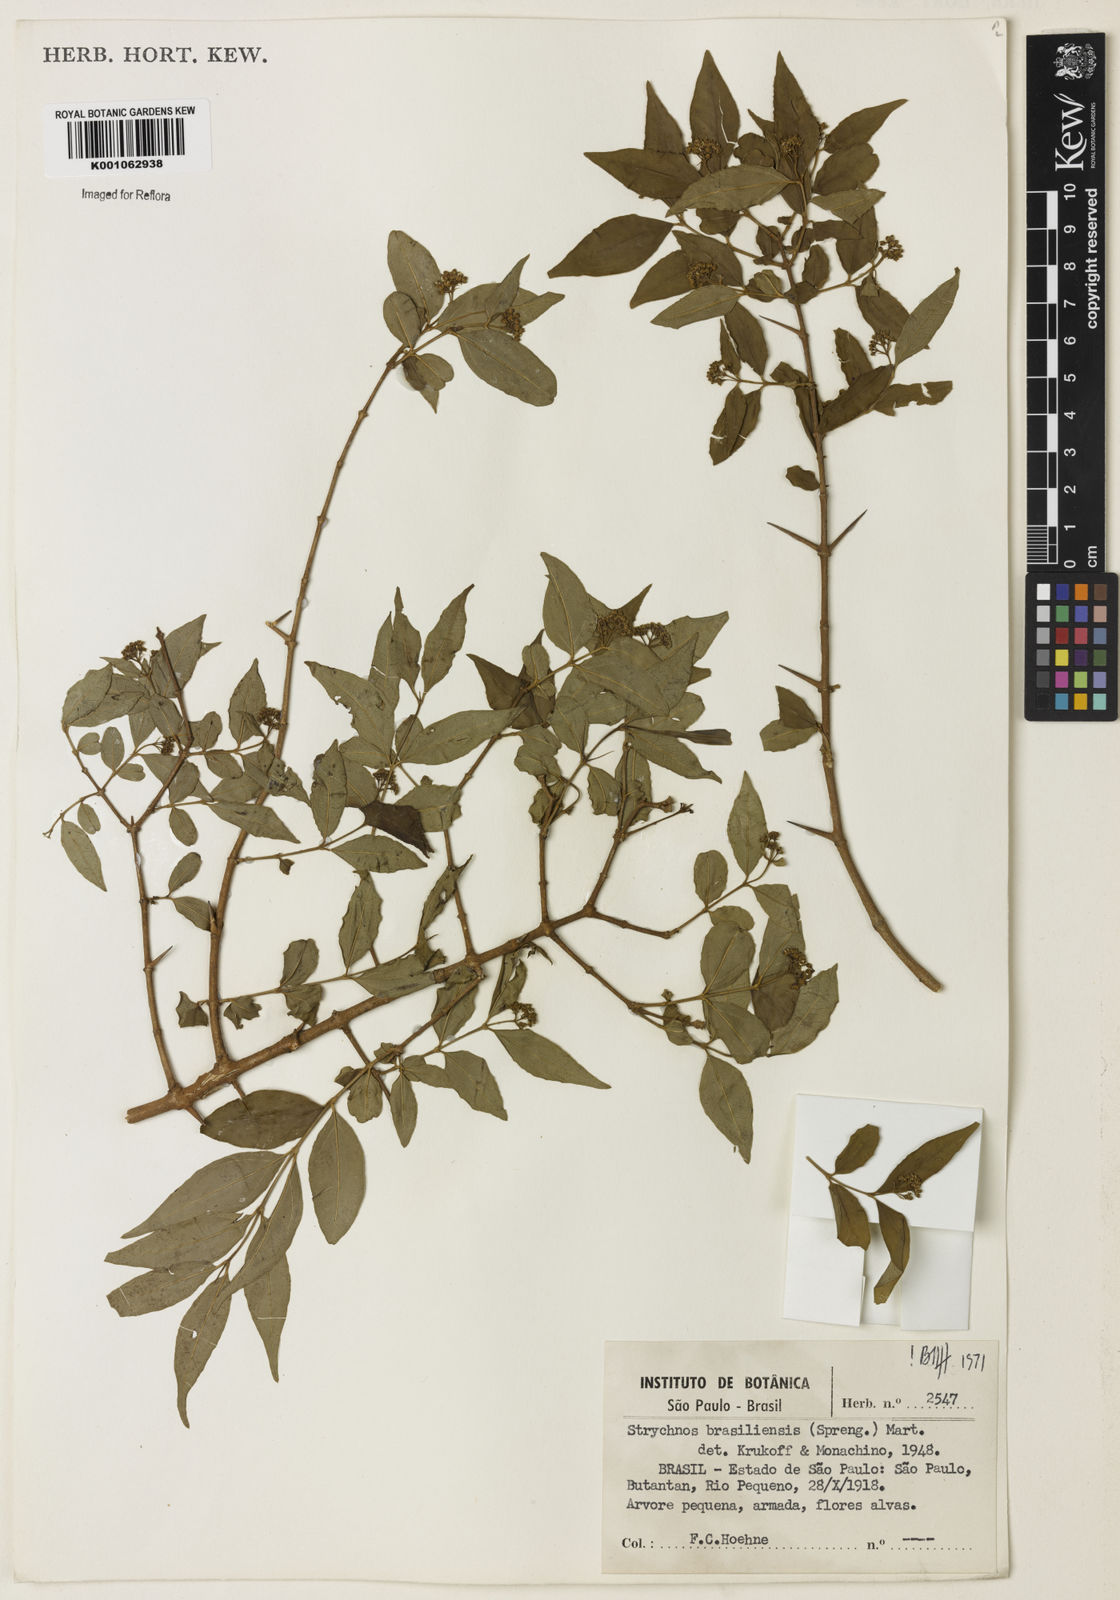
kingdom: Plantae
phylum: Tracheophyta
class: Magnoliopsida
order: Gentianales
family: Loganiaceae
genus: Strychnos
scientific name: Strychnos brasiliensis
